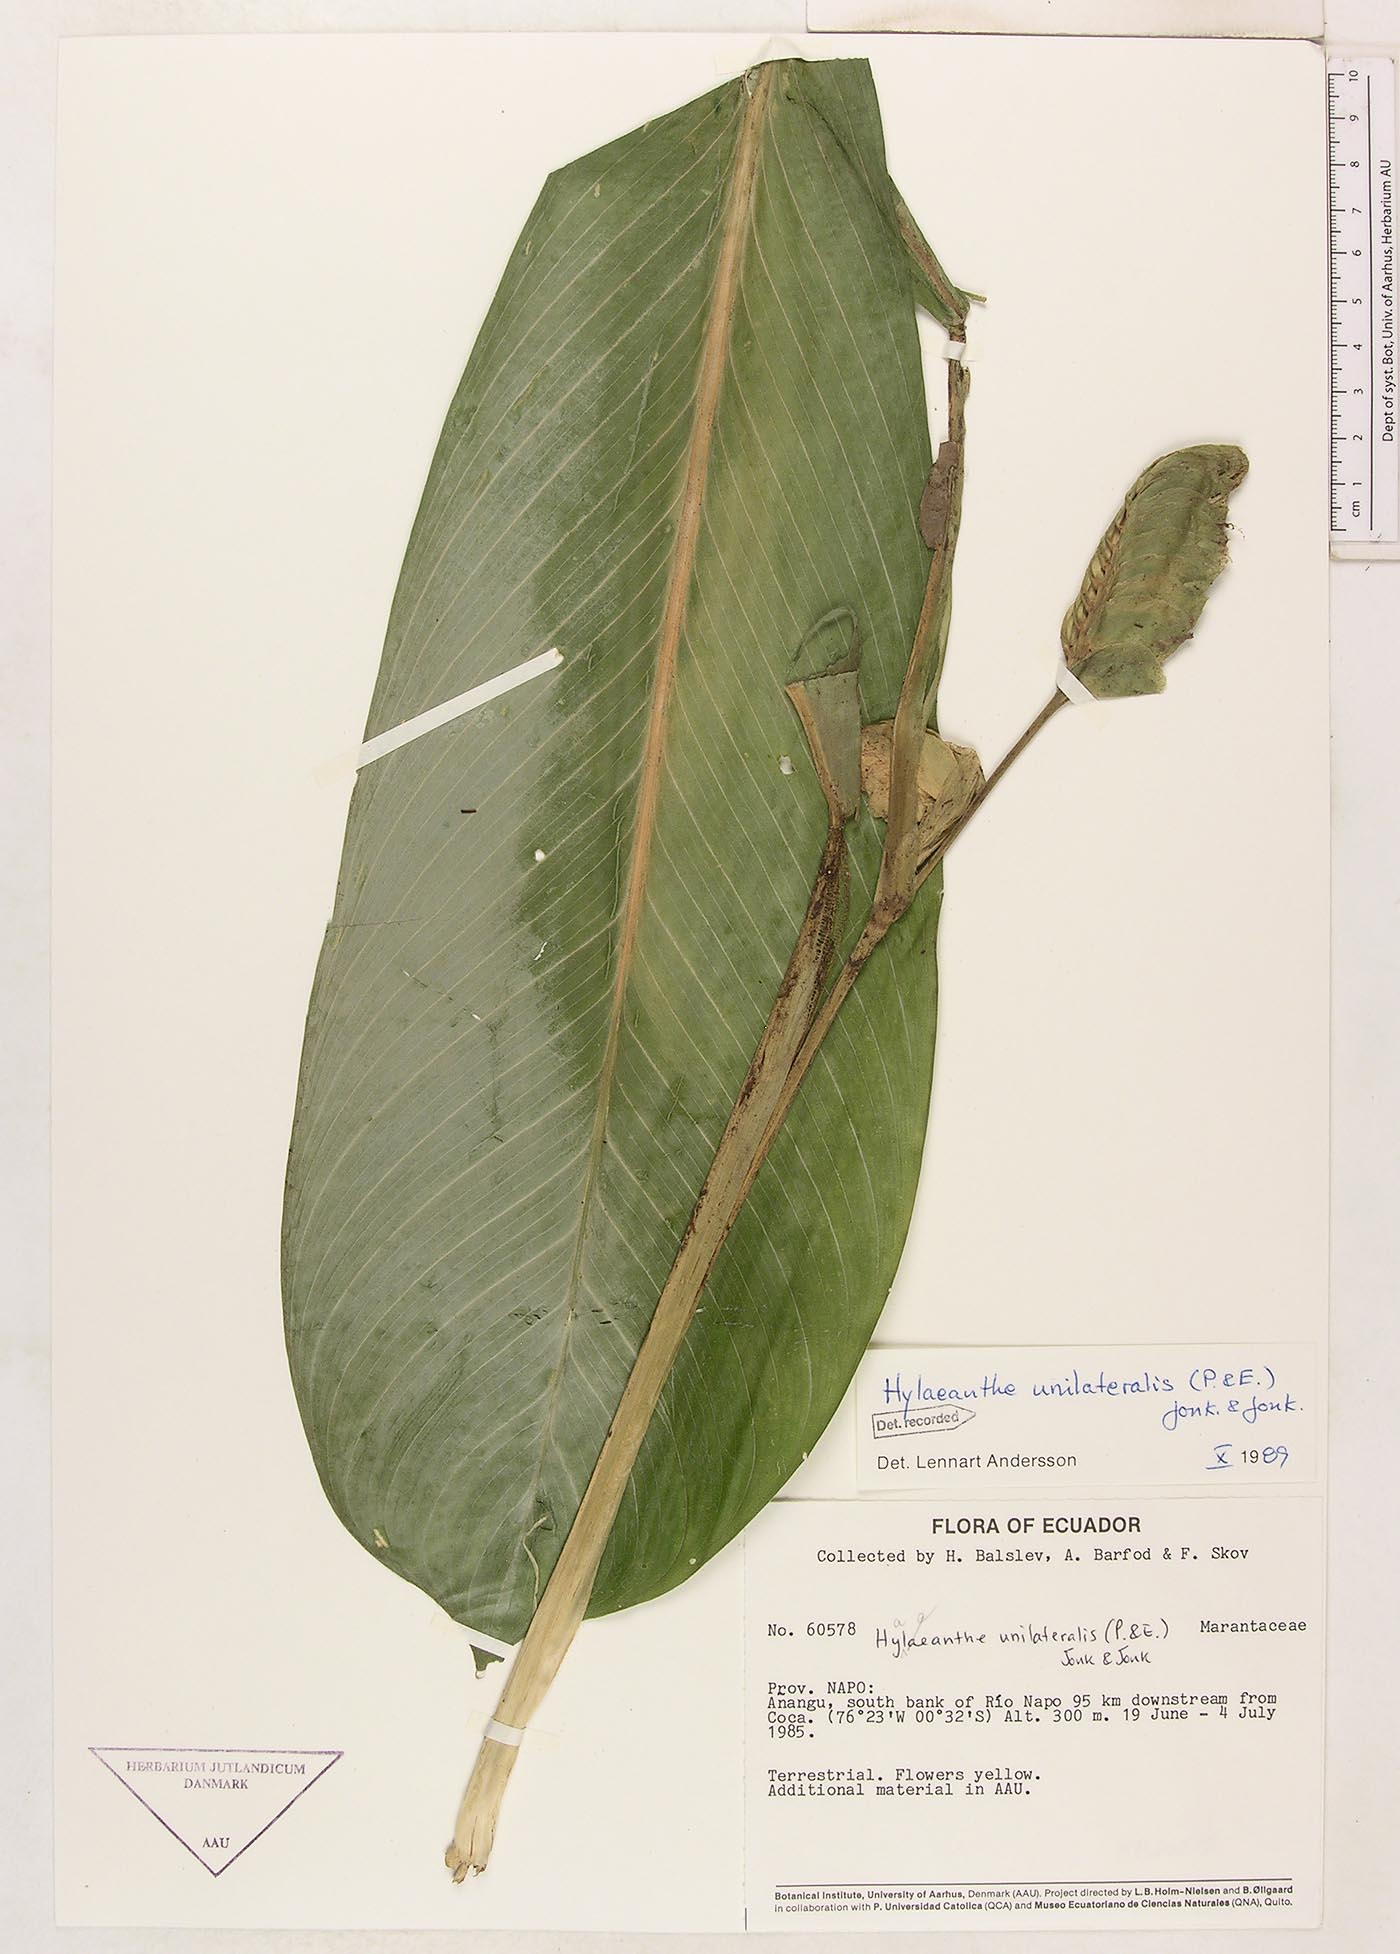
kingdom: Plantae
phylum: Tracheophyta
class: Liliopsida
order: Zingiberales
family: Marantaceae
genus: Hylaeanthe
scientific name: Hylaeanthe unilateralis
